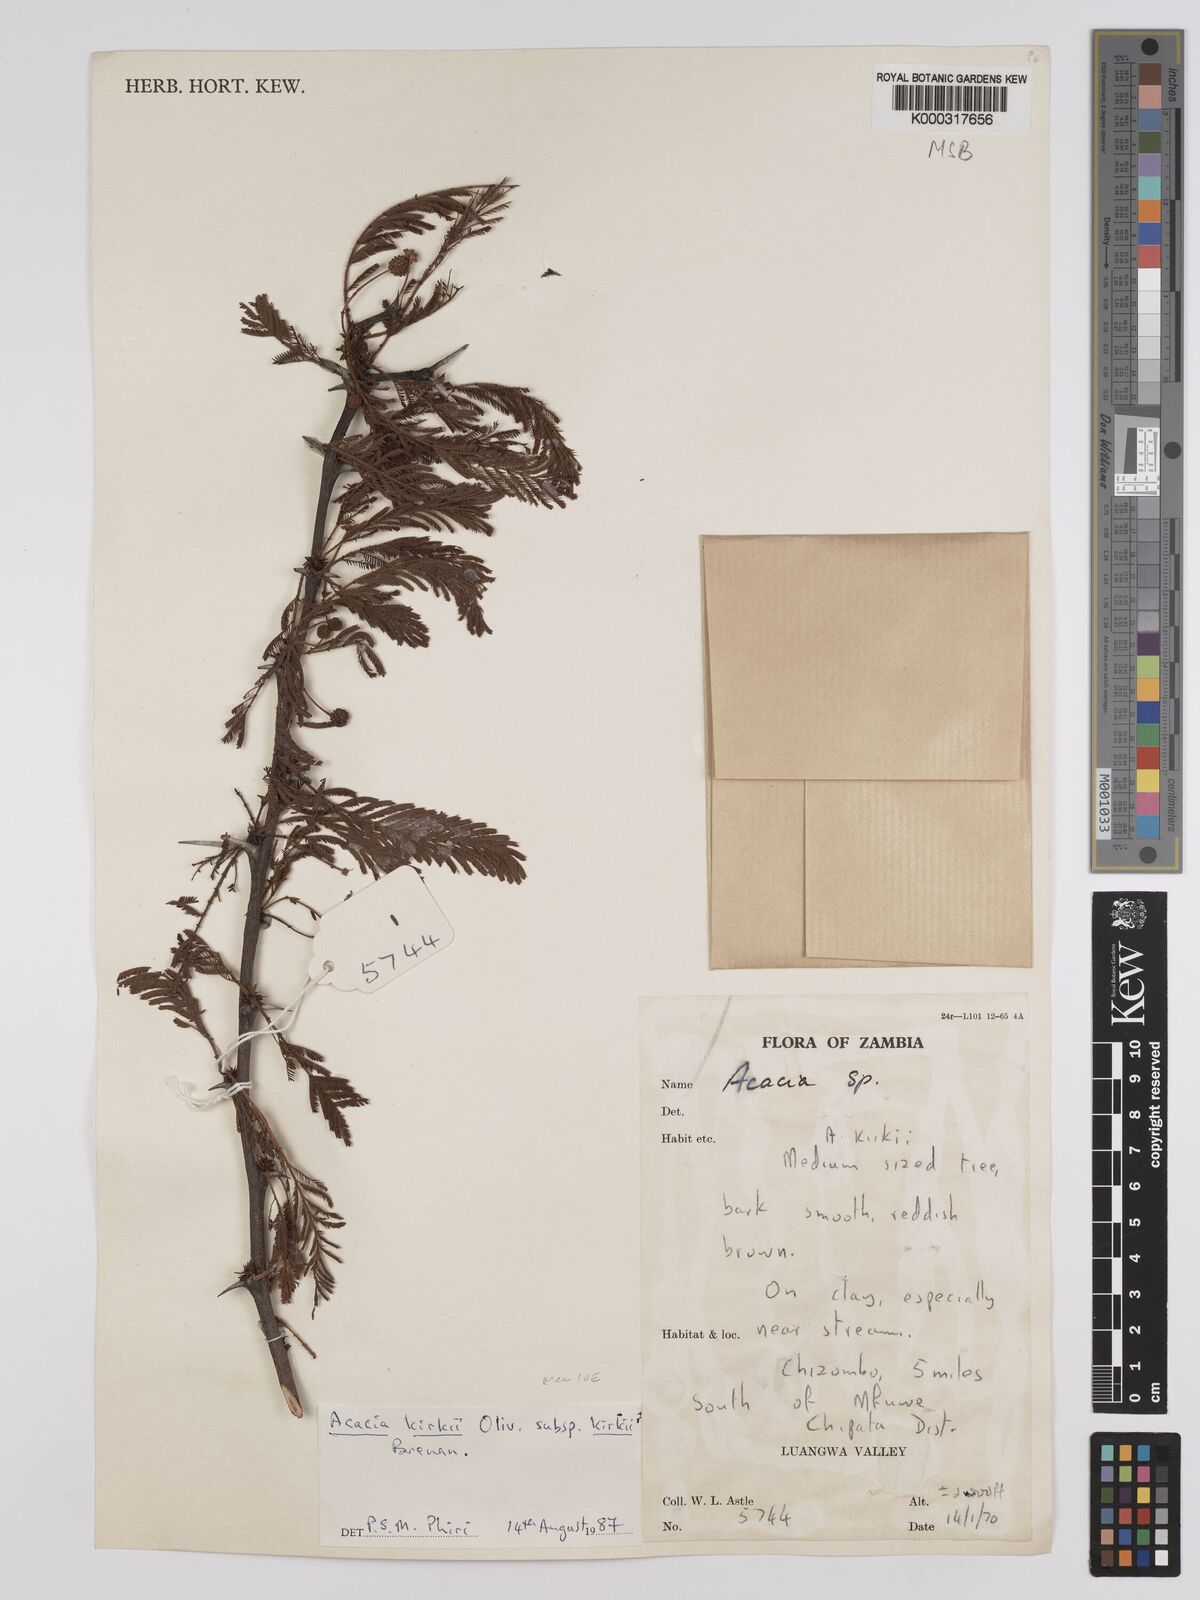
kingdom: Plantae
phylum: Tracheophyta
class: Magnoliopsida
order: Fabales
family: Fabaceae
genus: Vachellia
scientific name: Vachellia kirkii
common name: Flood-plain acacia
